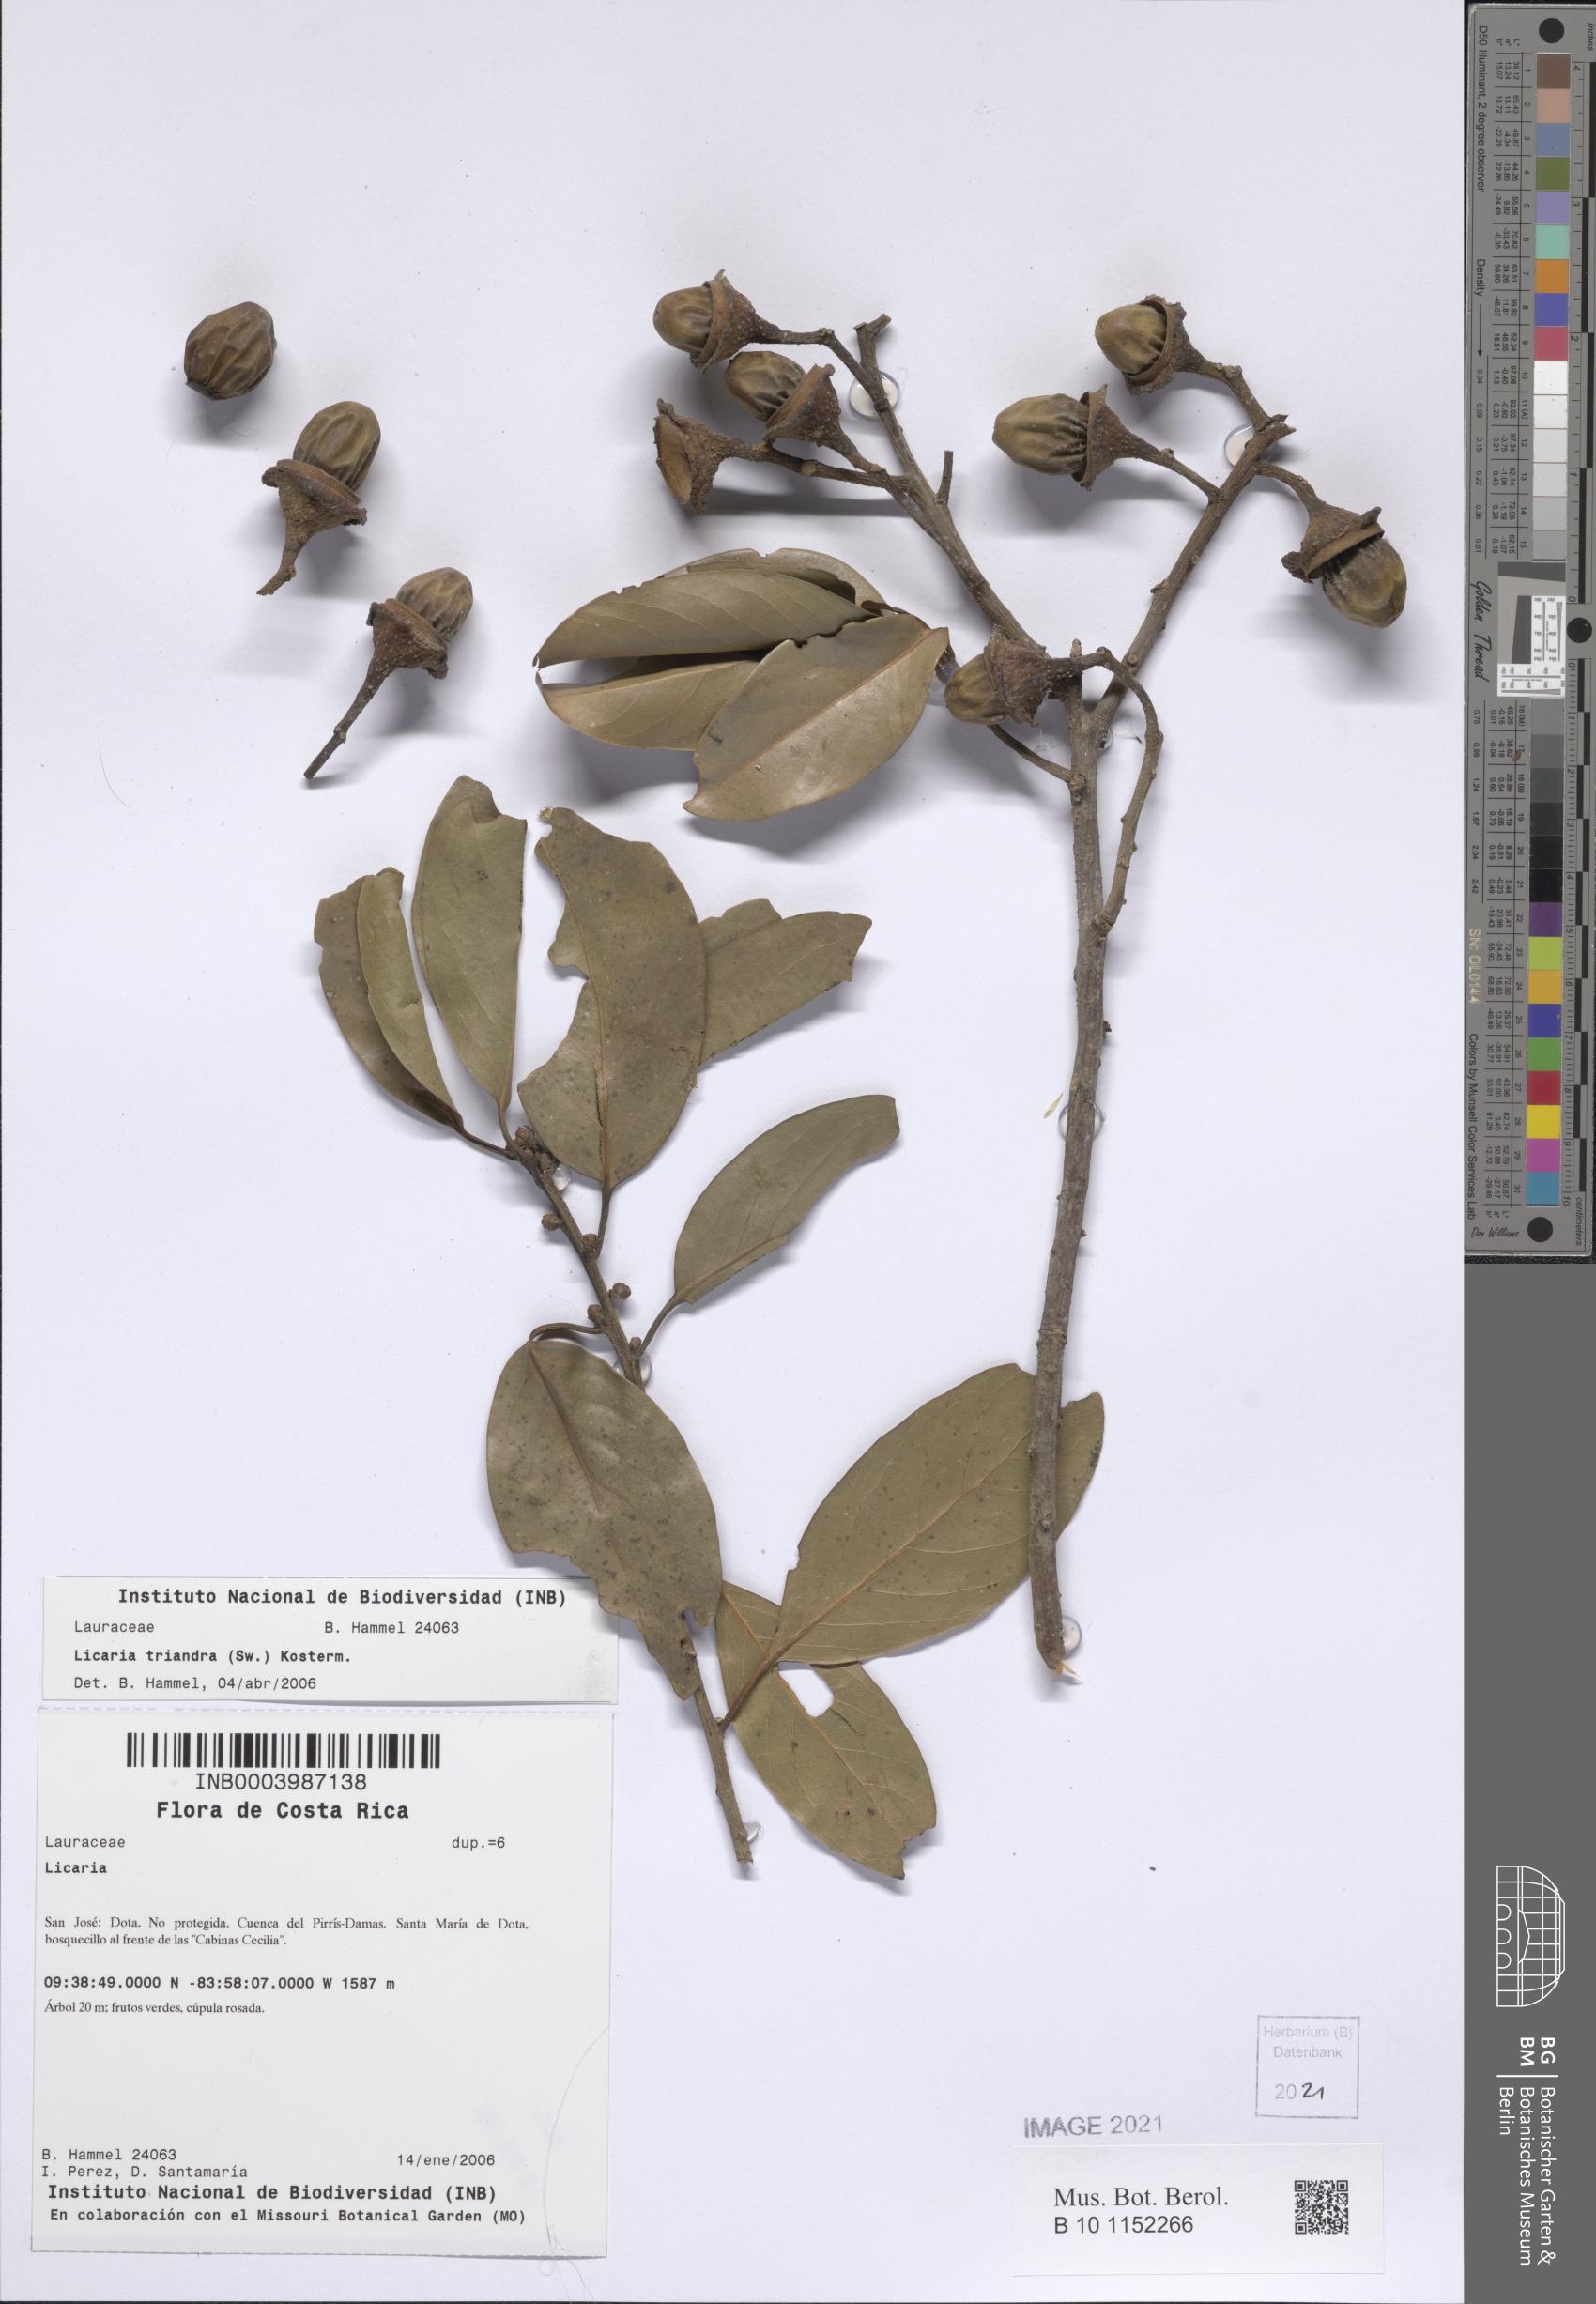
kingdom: Plantae
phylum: Tracheophyta
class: Magnoliopsida
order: Laurales
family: Lauraceae
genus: Licaria
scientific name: Licaria triandra
